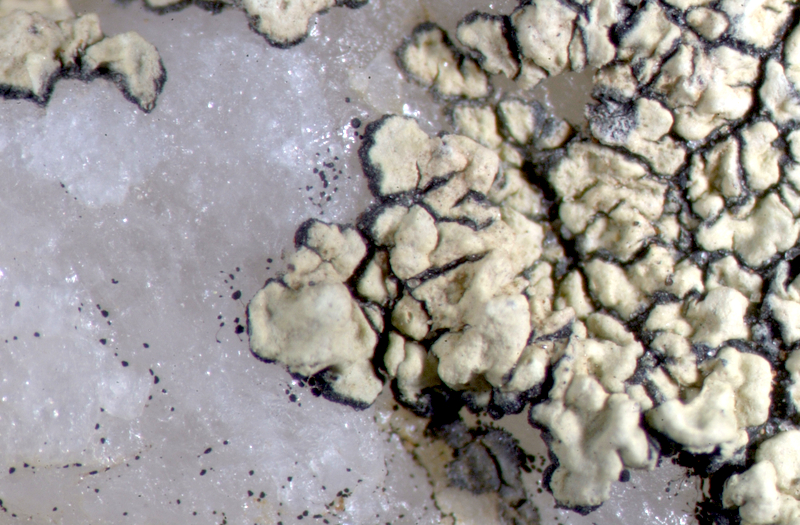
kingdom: Fungi
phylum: Ascomycota
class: Lecanoromycetes
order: Lecideales
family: Lecideaceae
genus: Lecidea
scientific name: Lecidea
